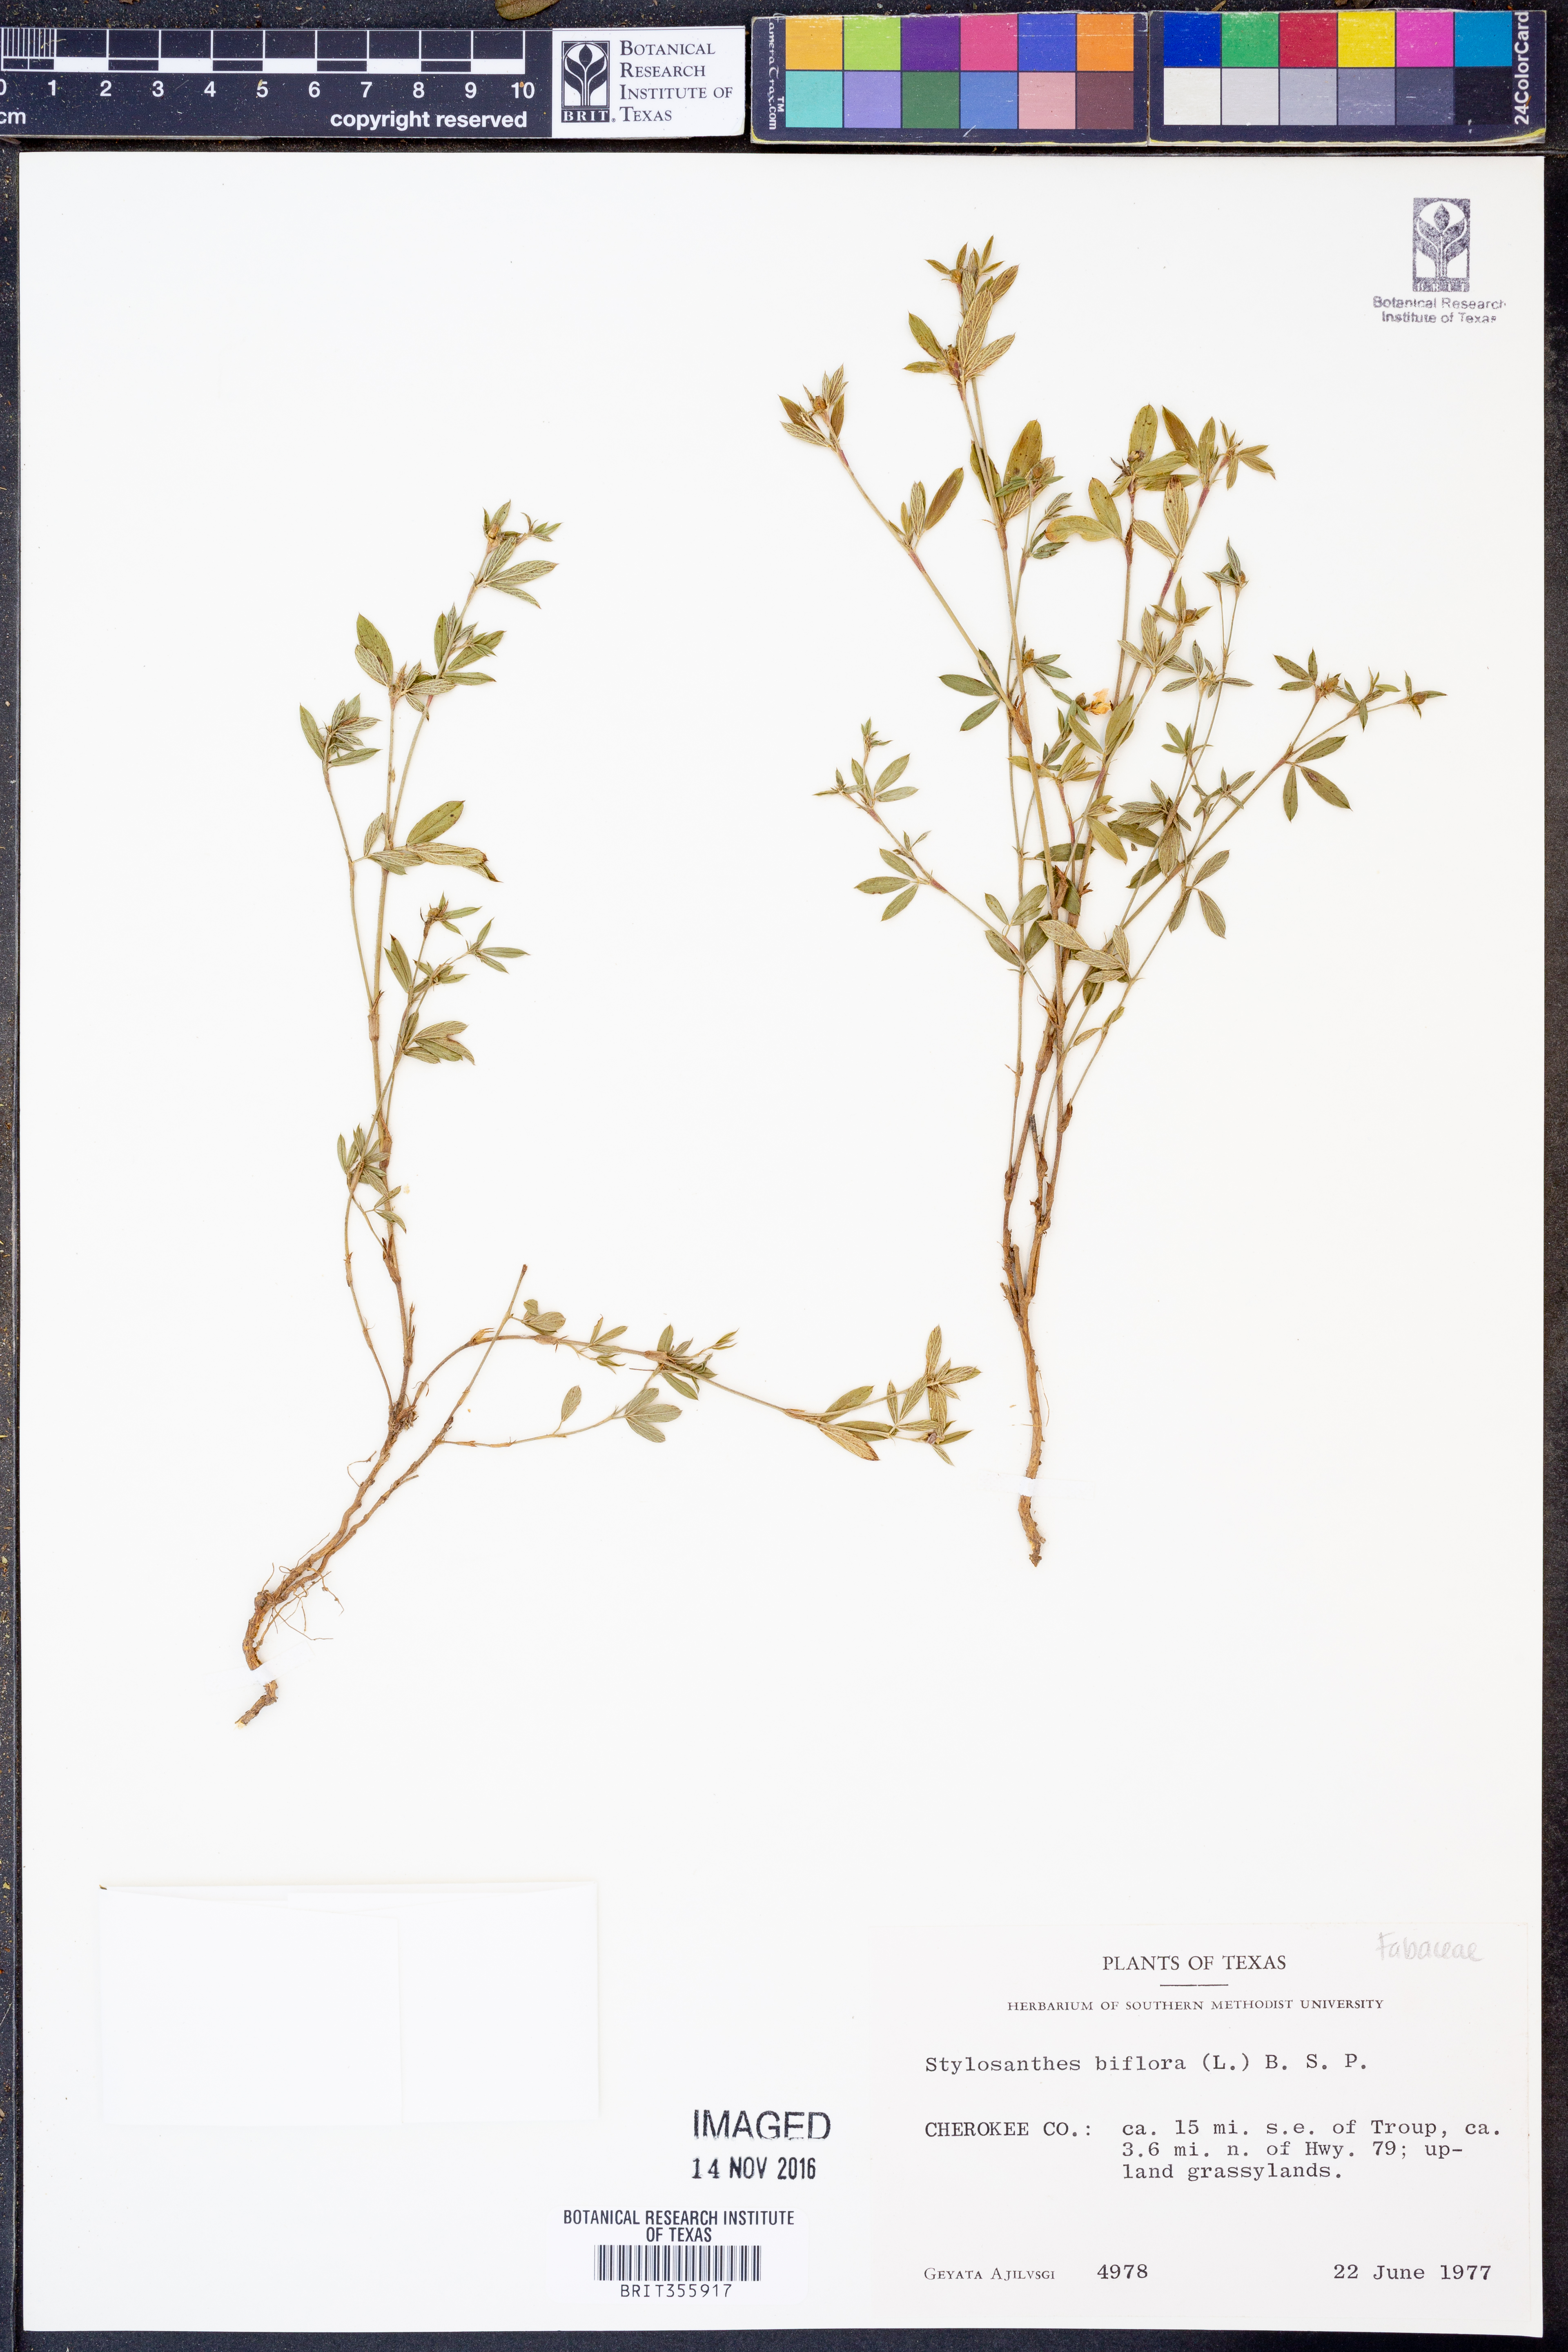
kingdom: Plantae
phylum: Tracheophyta
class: Magnoliopsida
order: Fabales
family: Fabaceae
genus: Stylosanthes
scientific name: Stylosanthes biflora
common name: Two-flower pencil-flower
